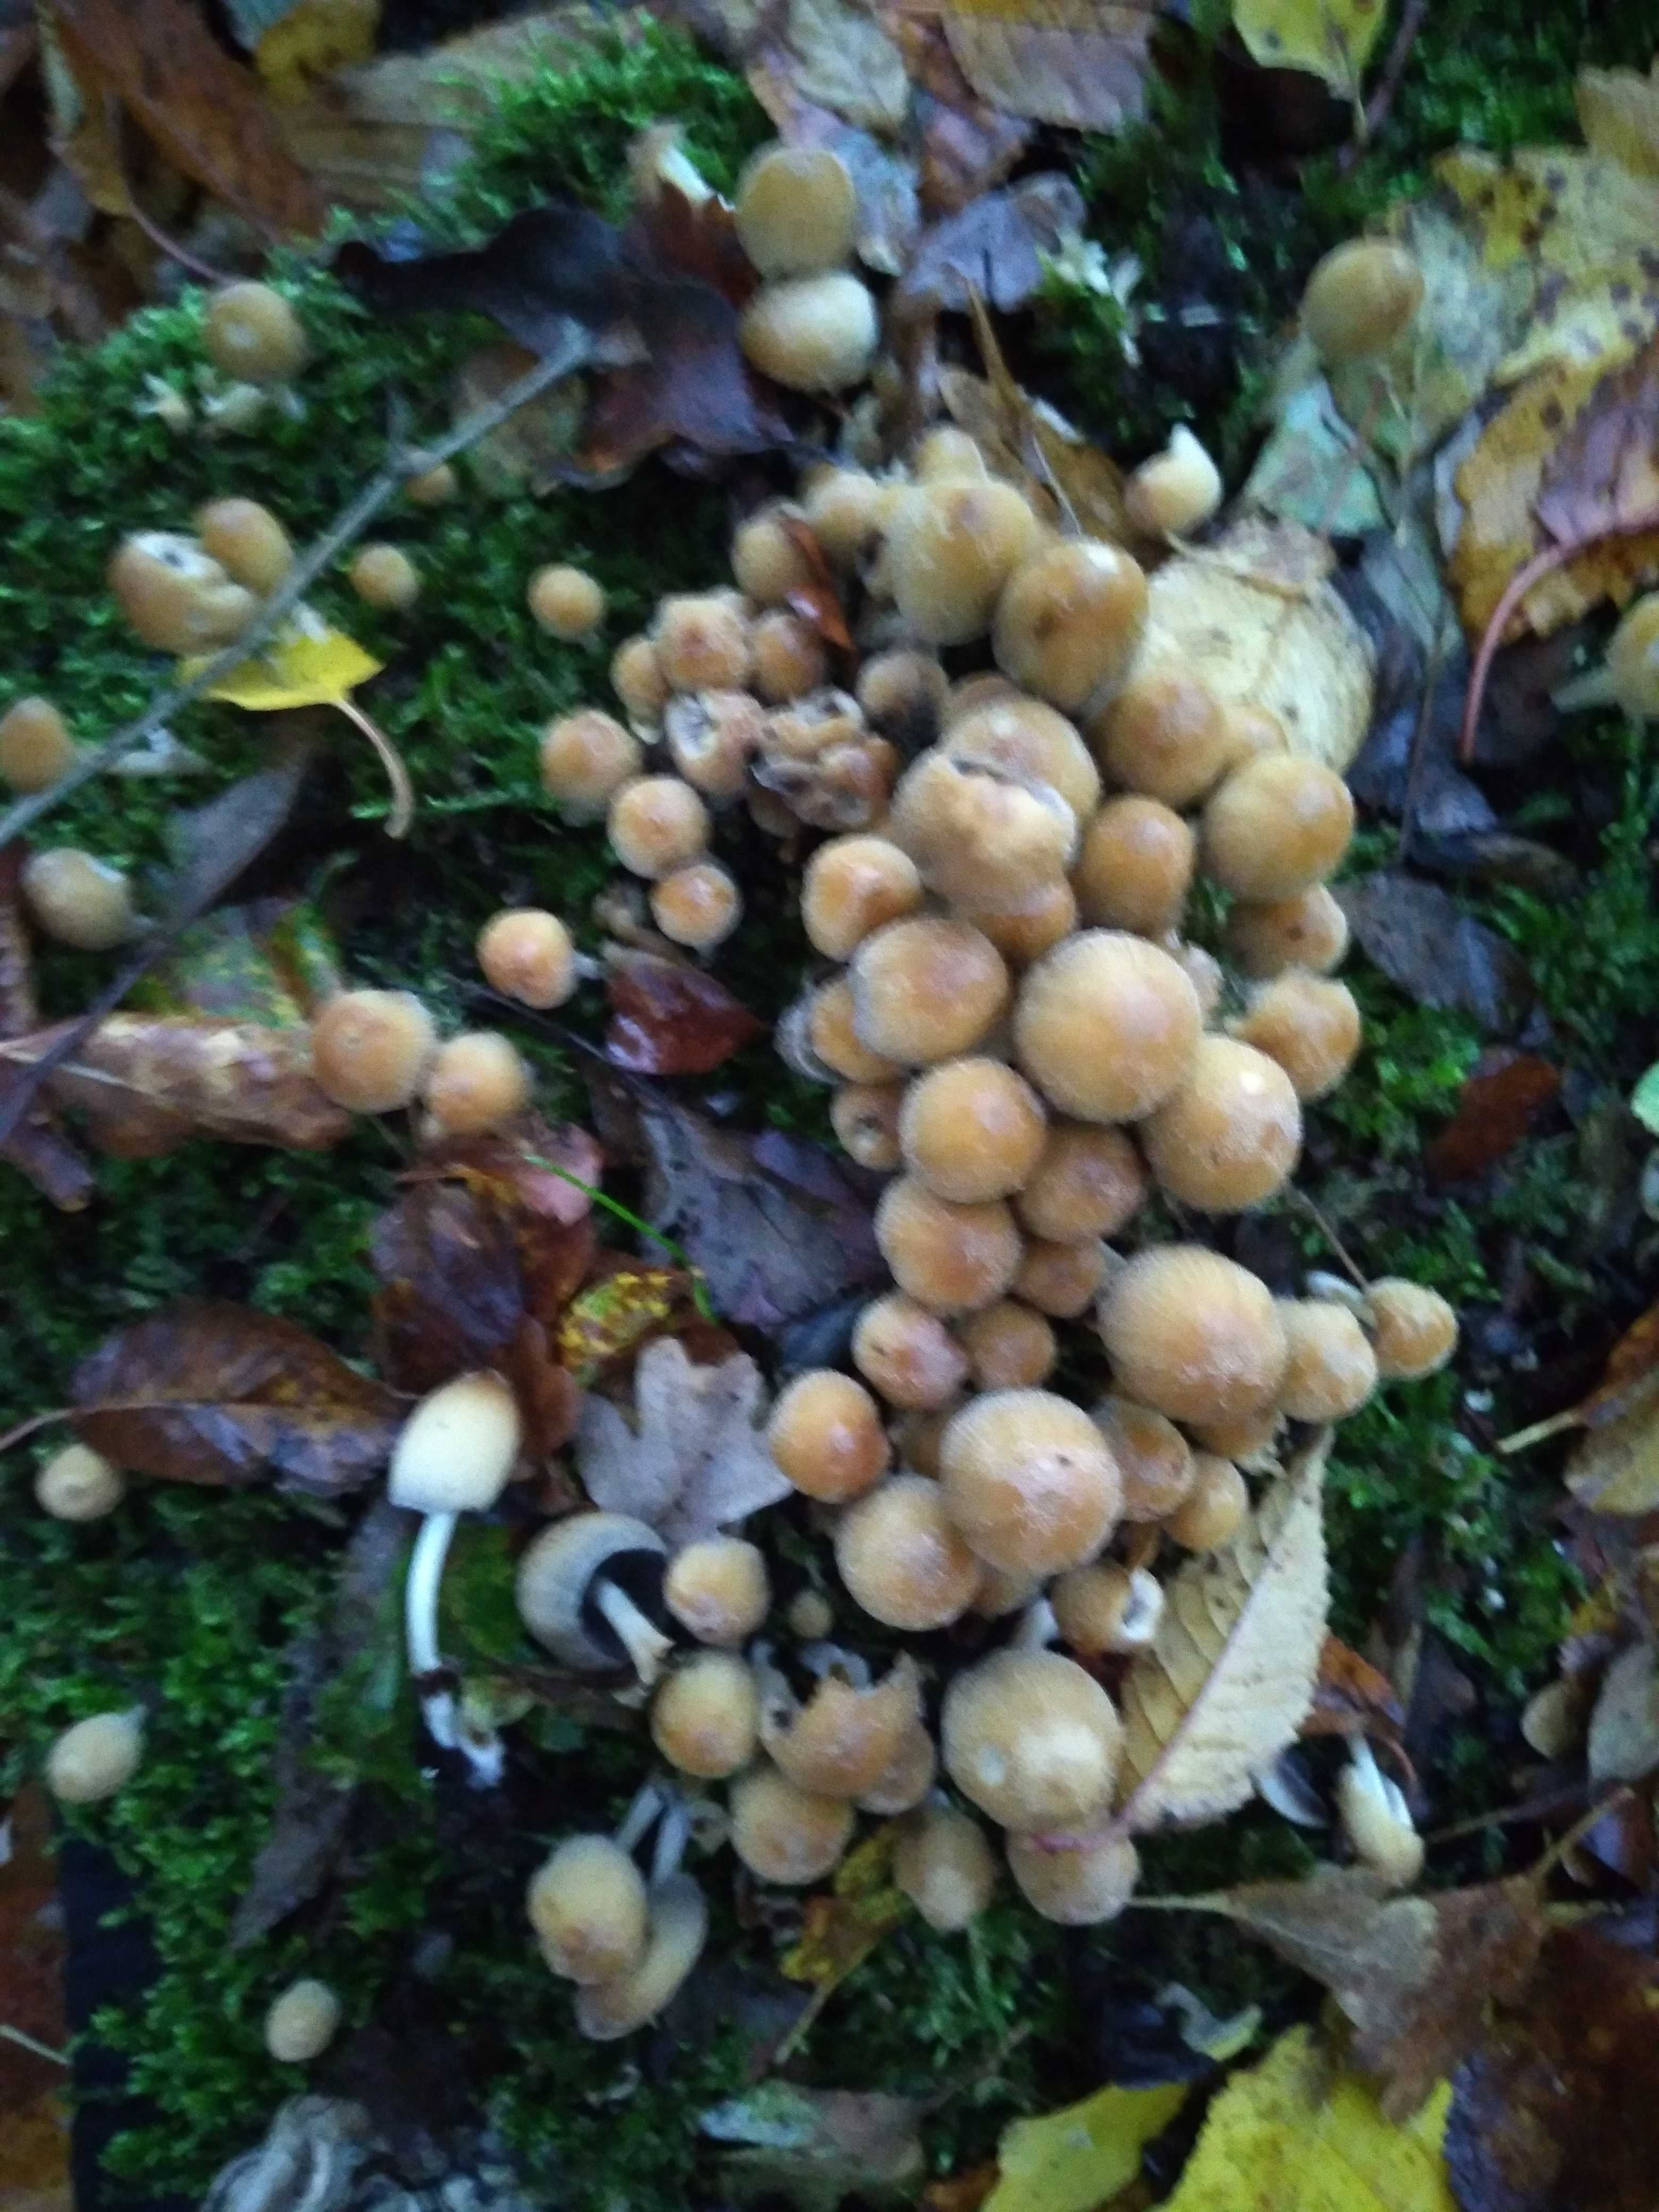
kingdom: Fungi
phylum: Basidiomycota
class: Agaricomycetes
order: Agaricales
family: Psathyrellaceae
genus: Coprinellus
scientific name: Coprinellus micaceus
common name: glimmer-blækhat
